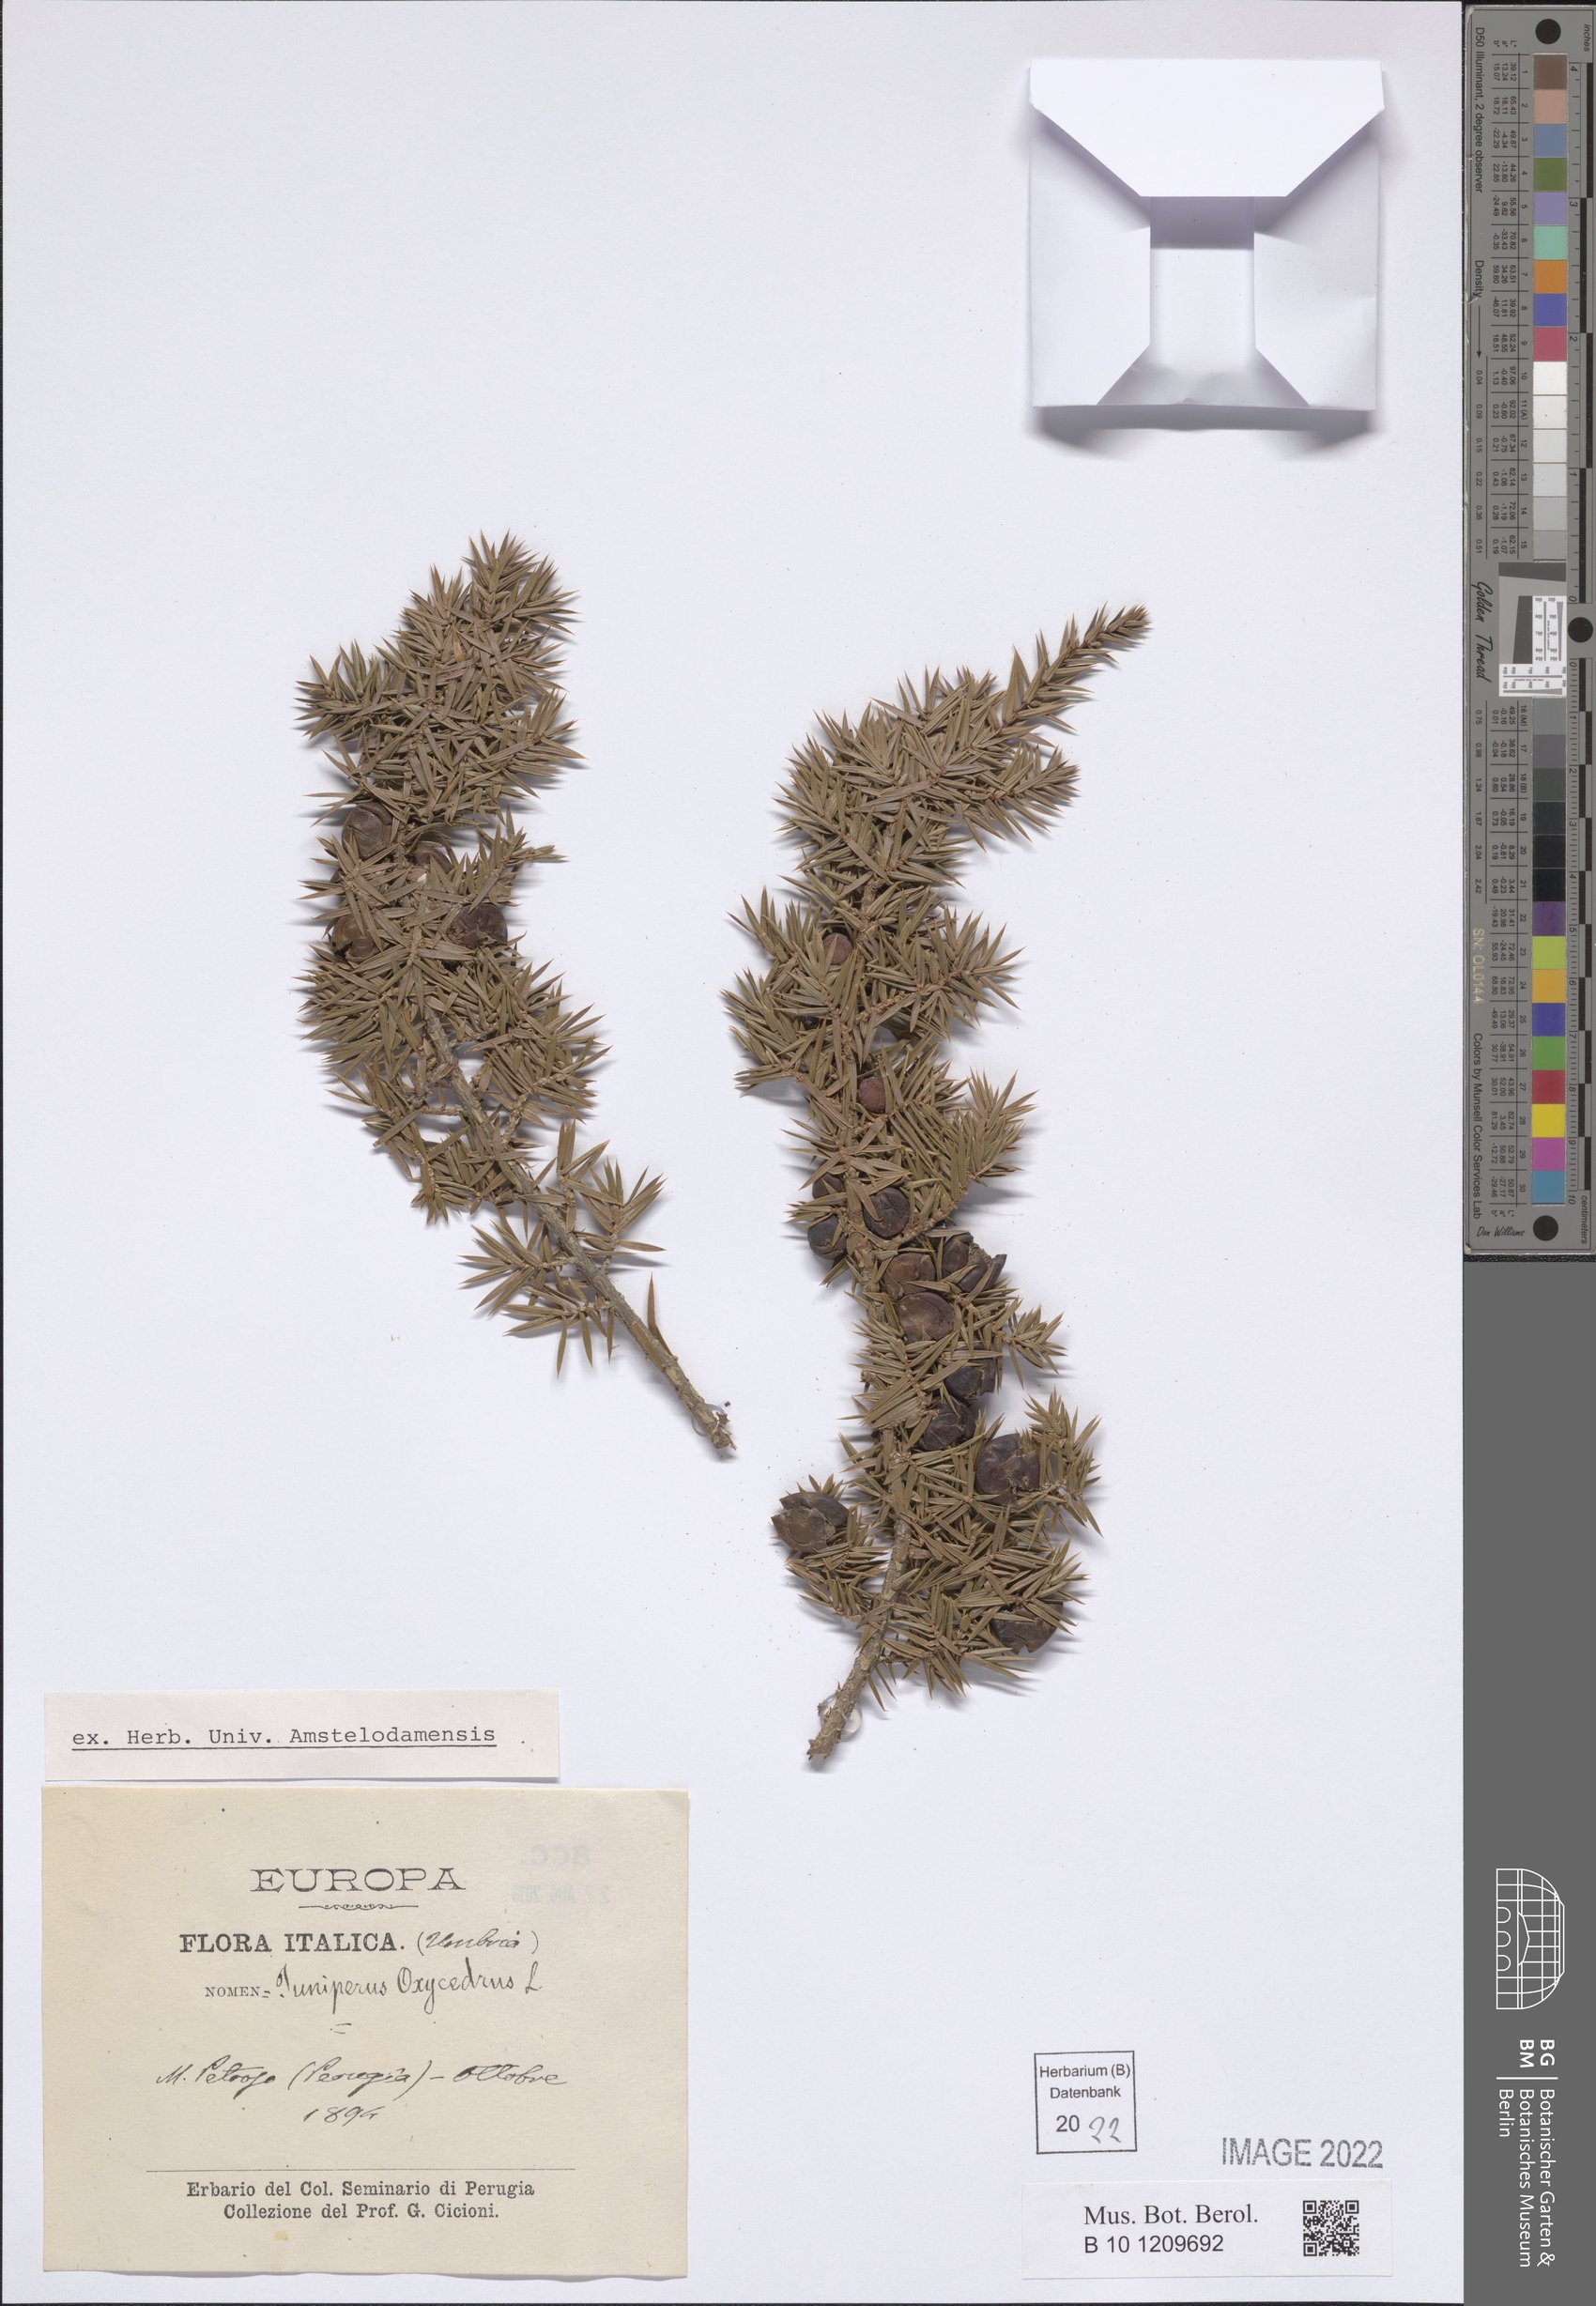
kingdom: Plantae
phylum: Tracheophyta
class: Pinopsida
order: Pinales
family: Cupressaceae
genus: Juniperus
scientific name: Juniperus oxycedrus
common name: Prickly juniper
